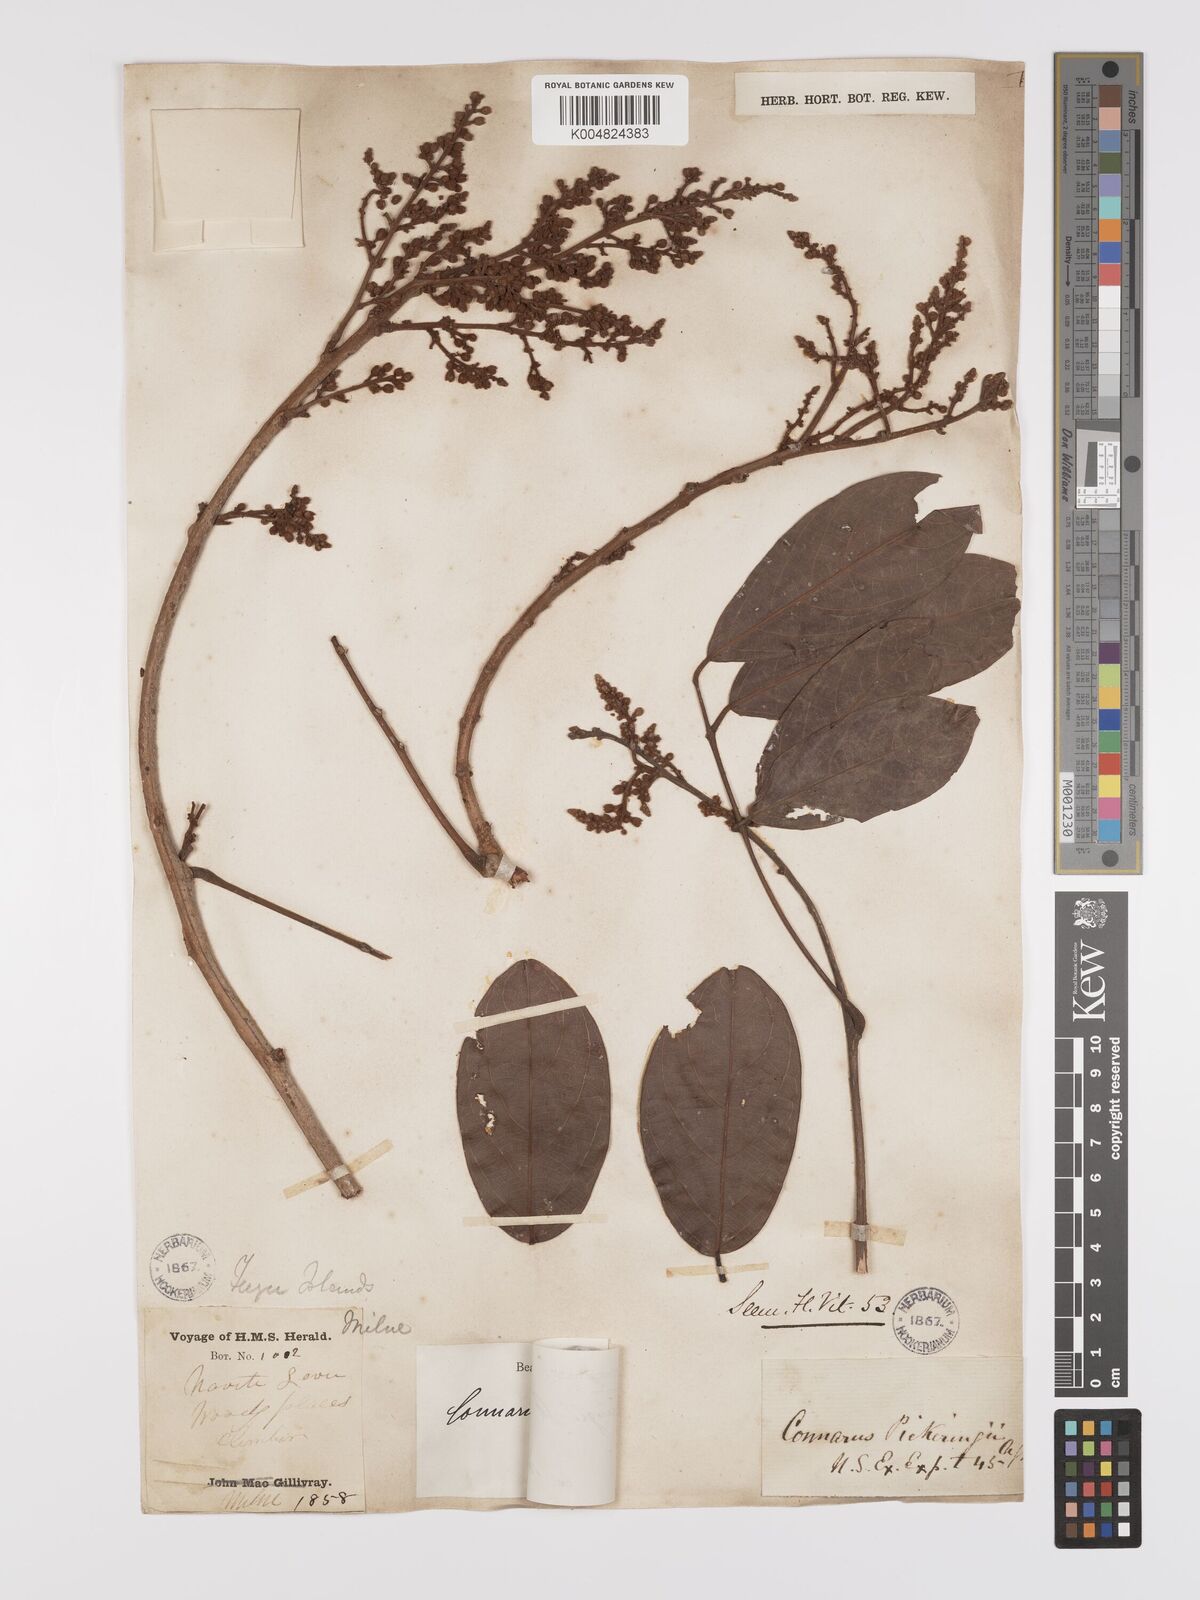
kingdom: Plantae
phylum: Tracheophyta
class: Magnoliopsida
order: Oxalidales
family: Connaraceae
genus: Connarus
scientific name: Connarus pickeringii
